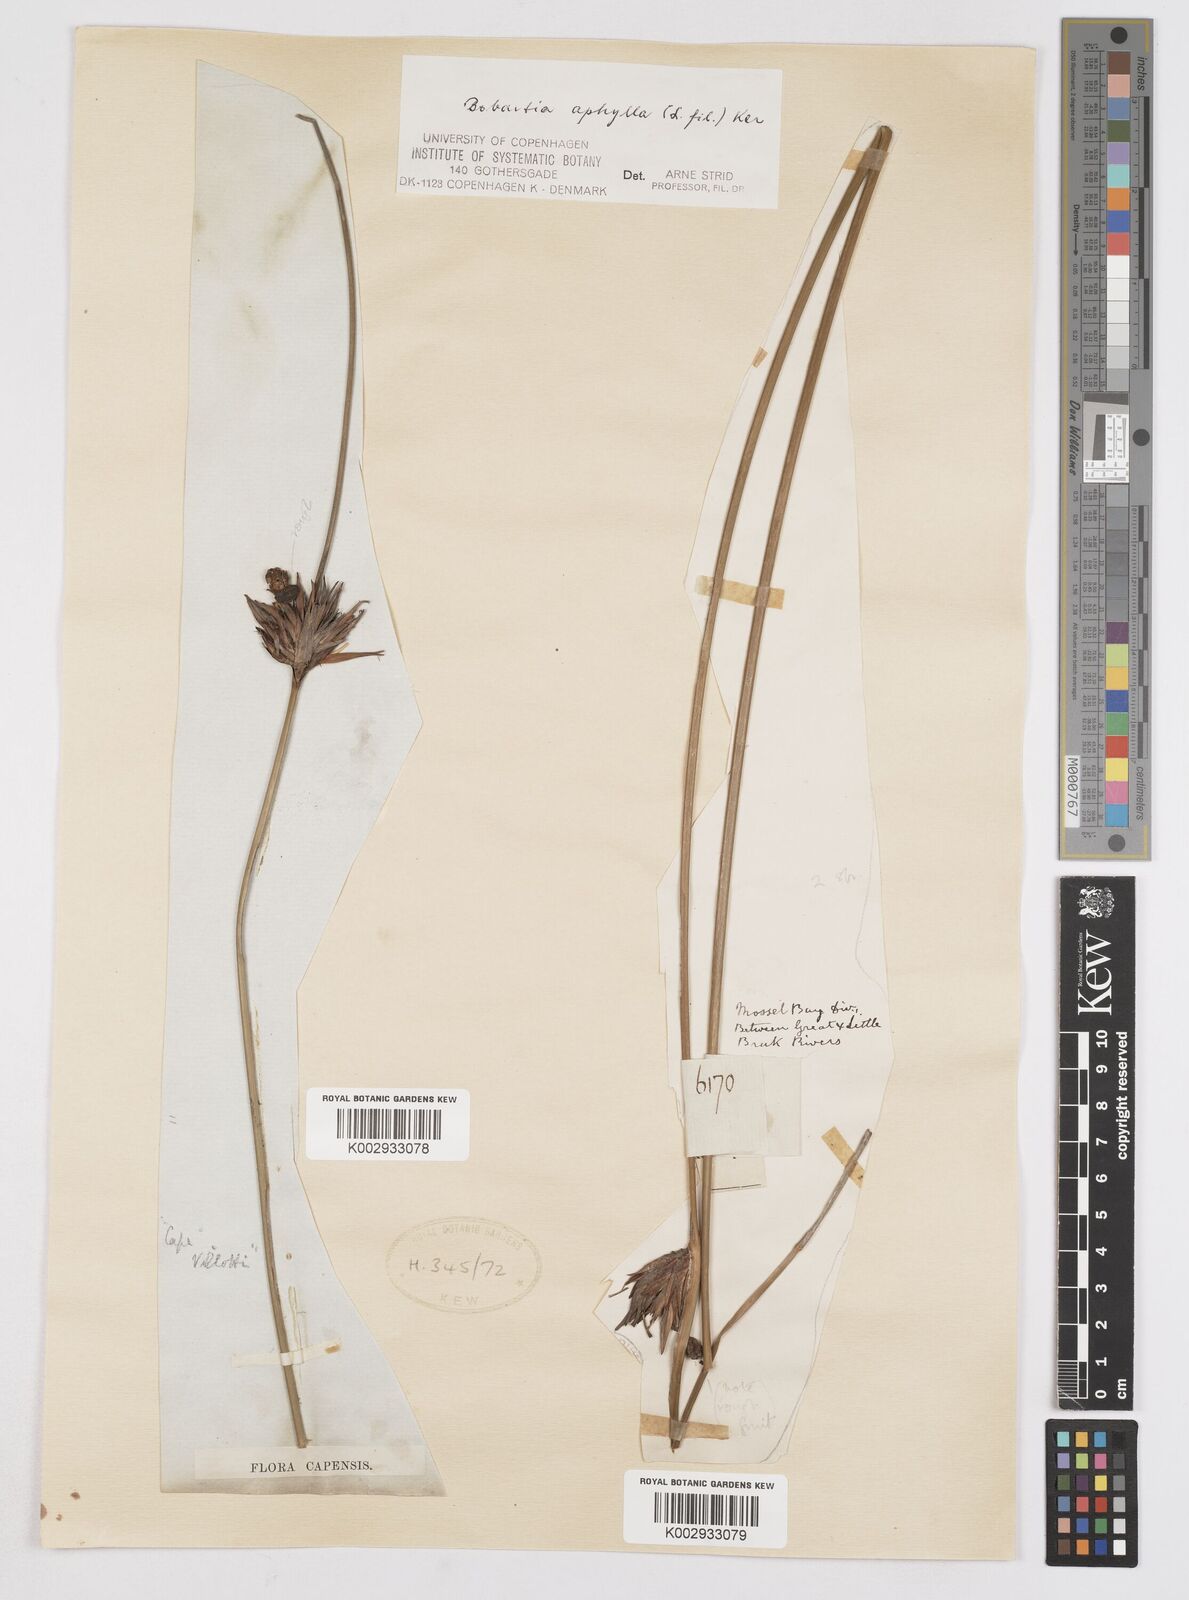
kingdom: Plantae
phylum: Tracheophyta
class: Liliopsida
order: Asparagales
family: Iridaceae
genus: Bobartia
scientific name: Bobartia aphylla
